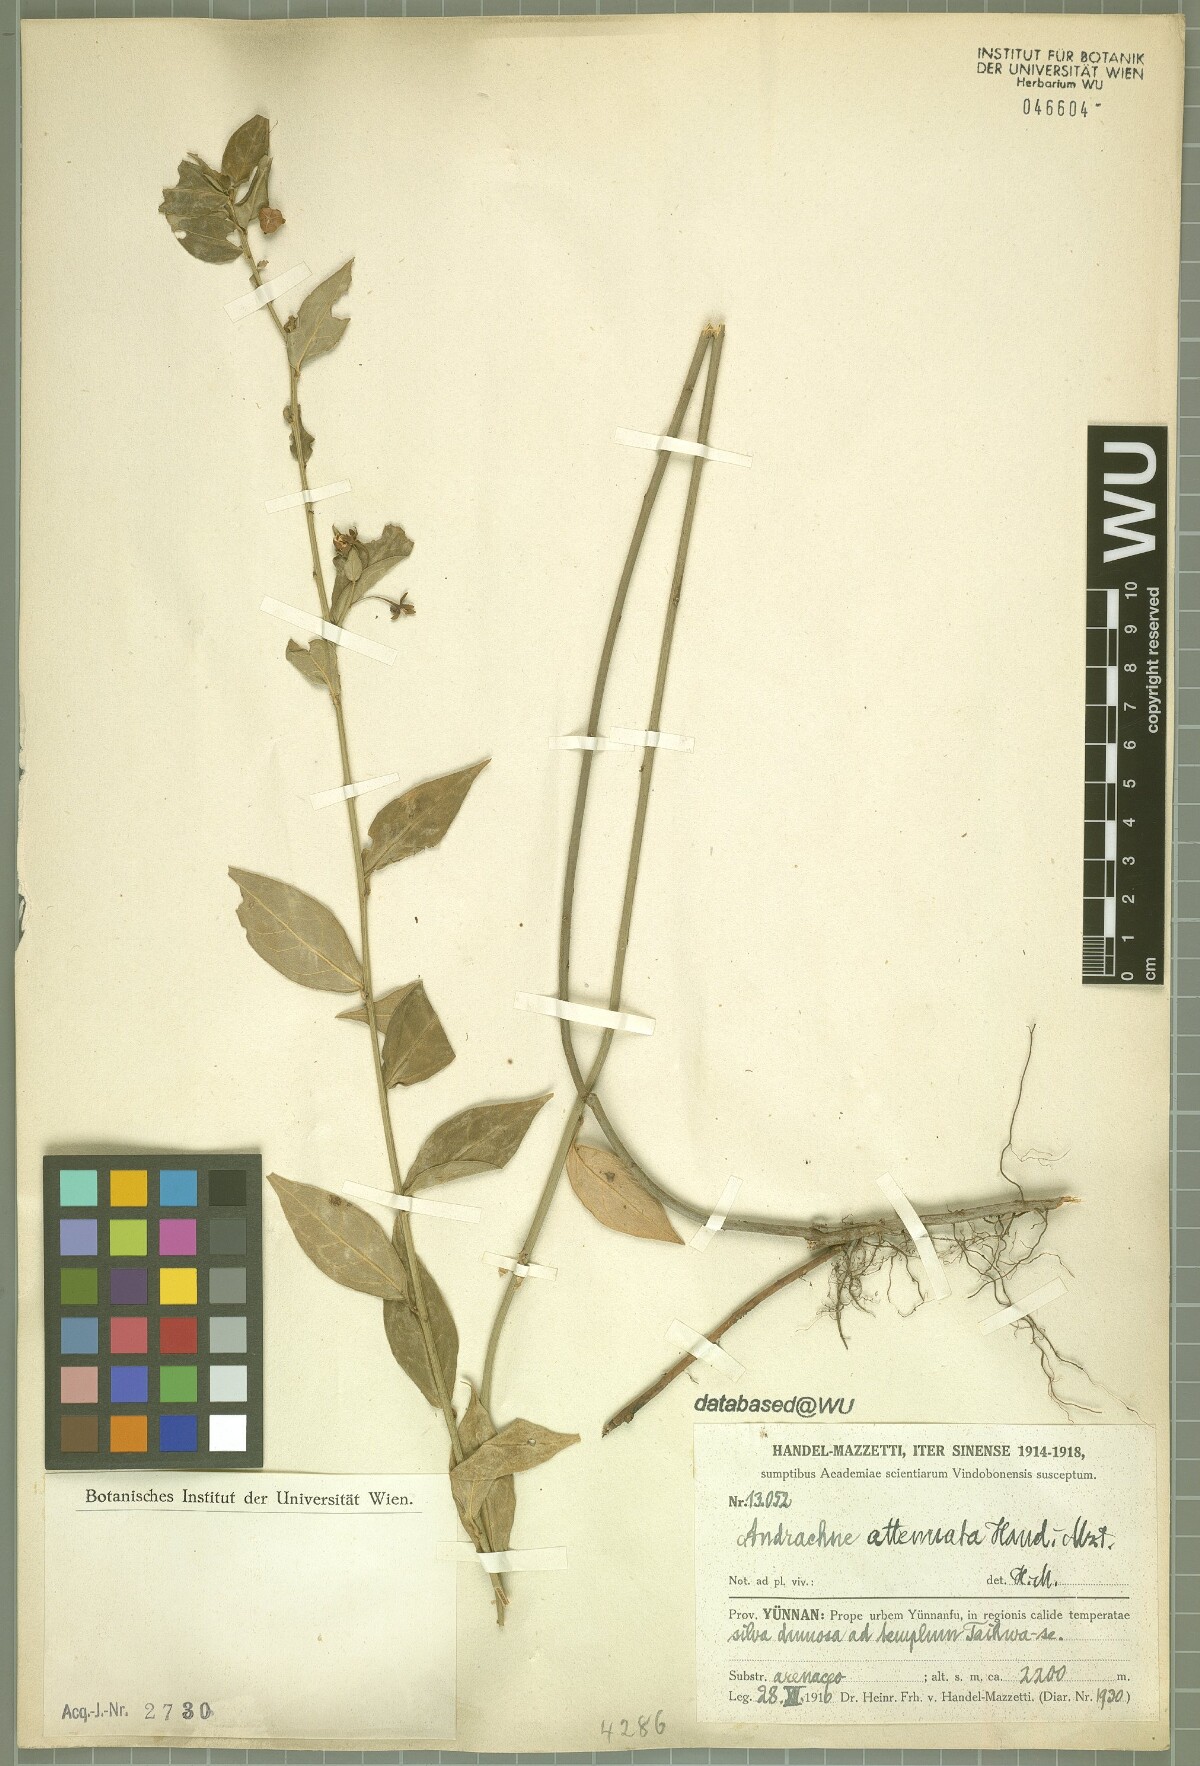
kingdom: Plantae
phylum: Tracheophyta
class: Magnoliopsida
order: Malpighiales
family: Phyllanthaceae
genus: Leptopus
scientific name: Leptopus clarkei
